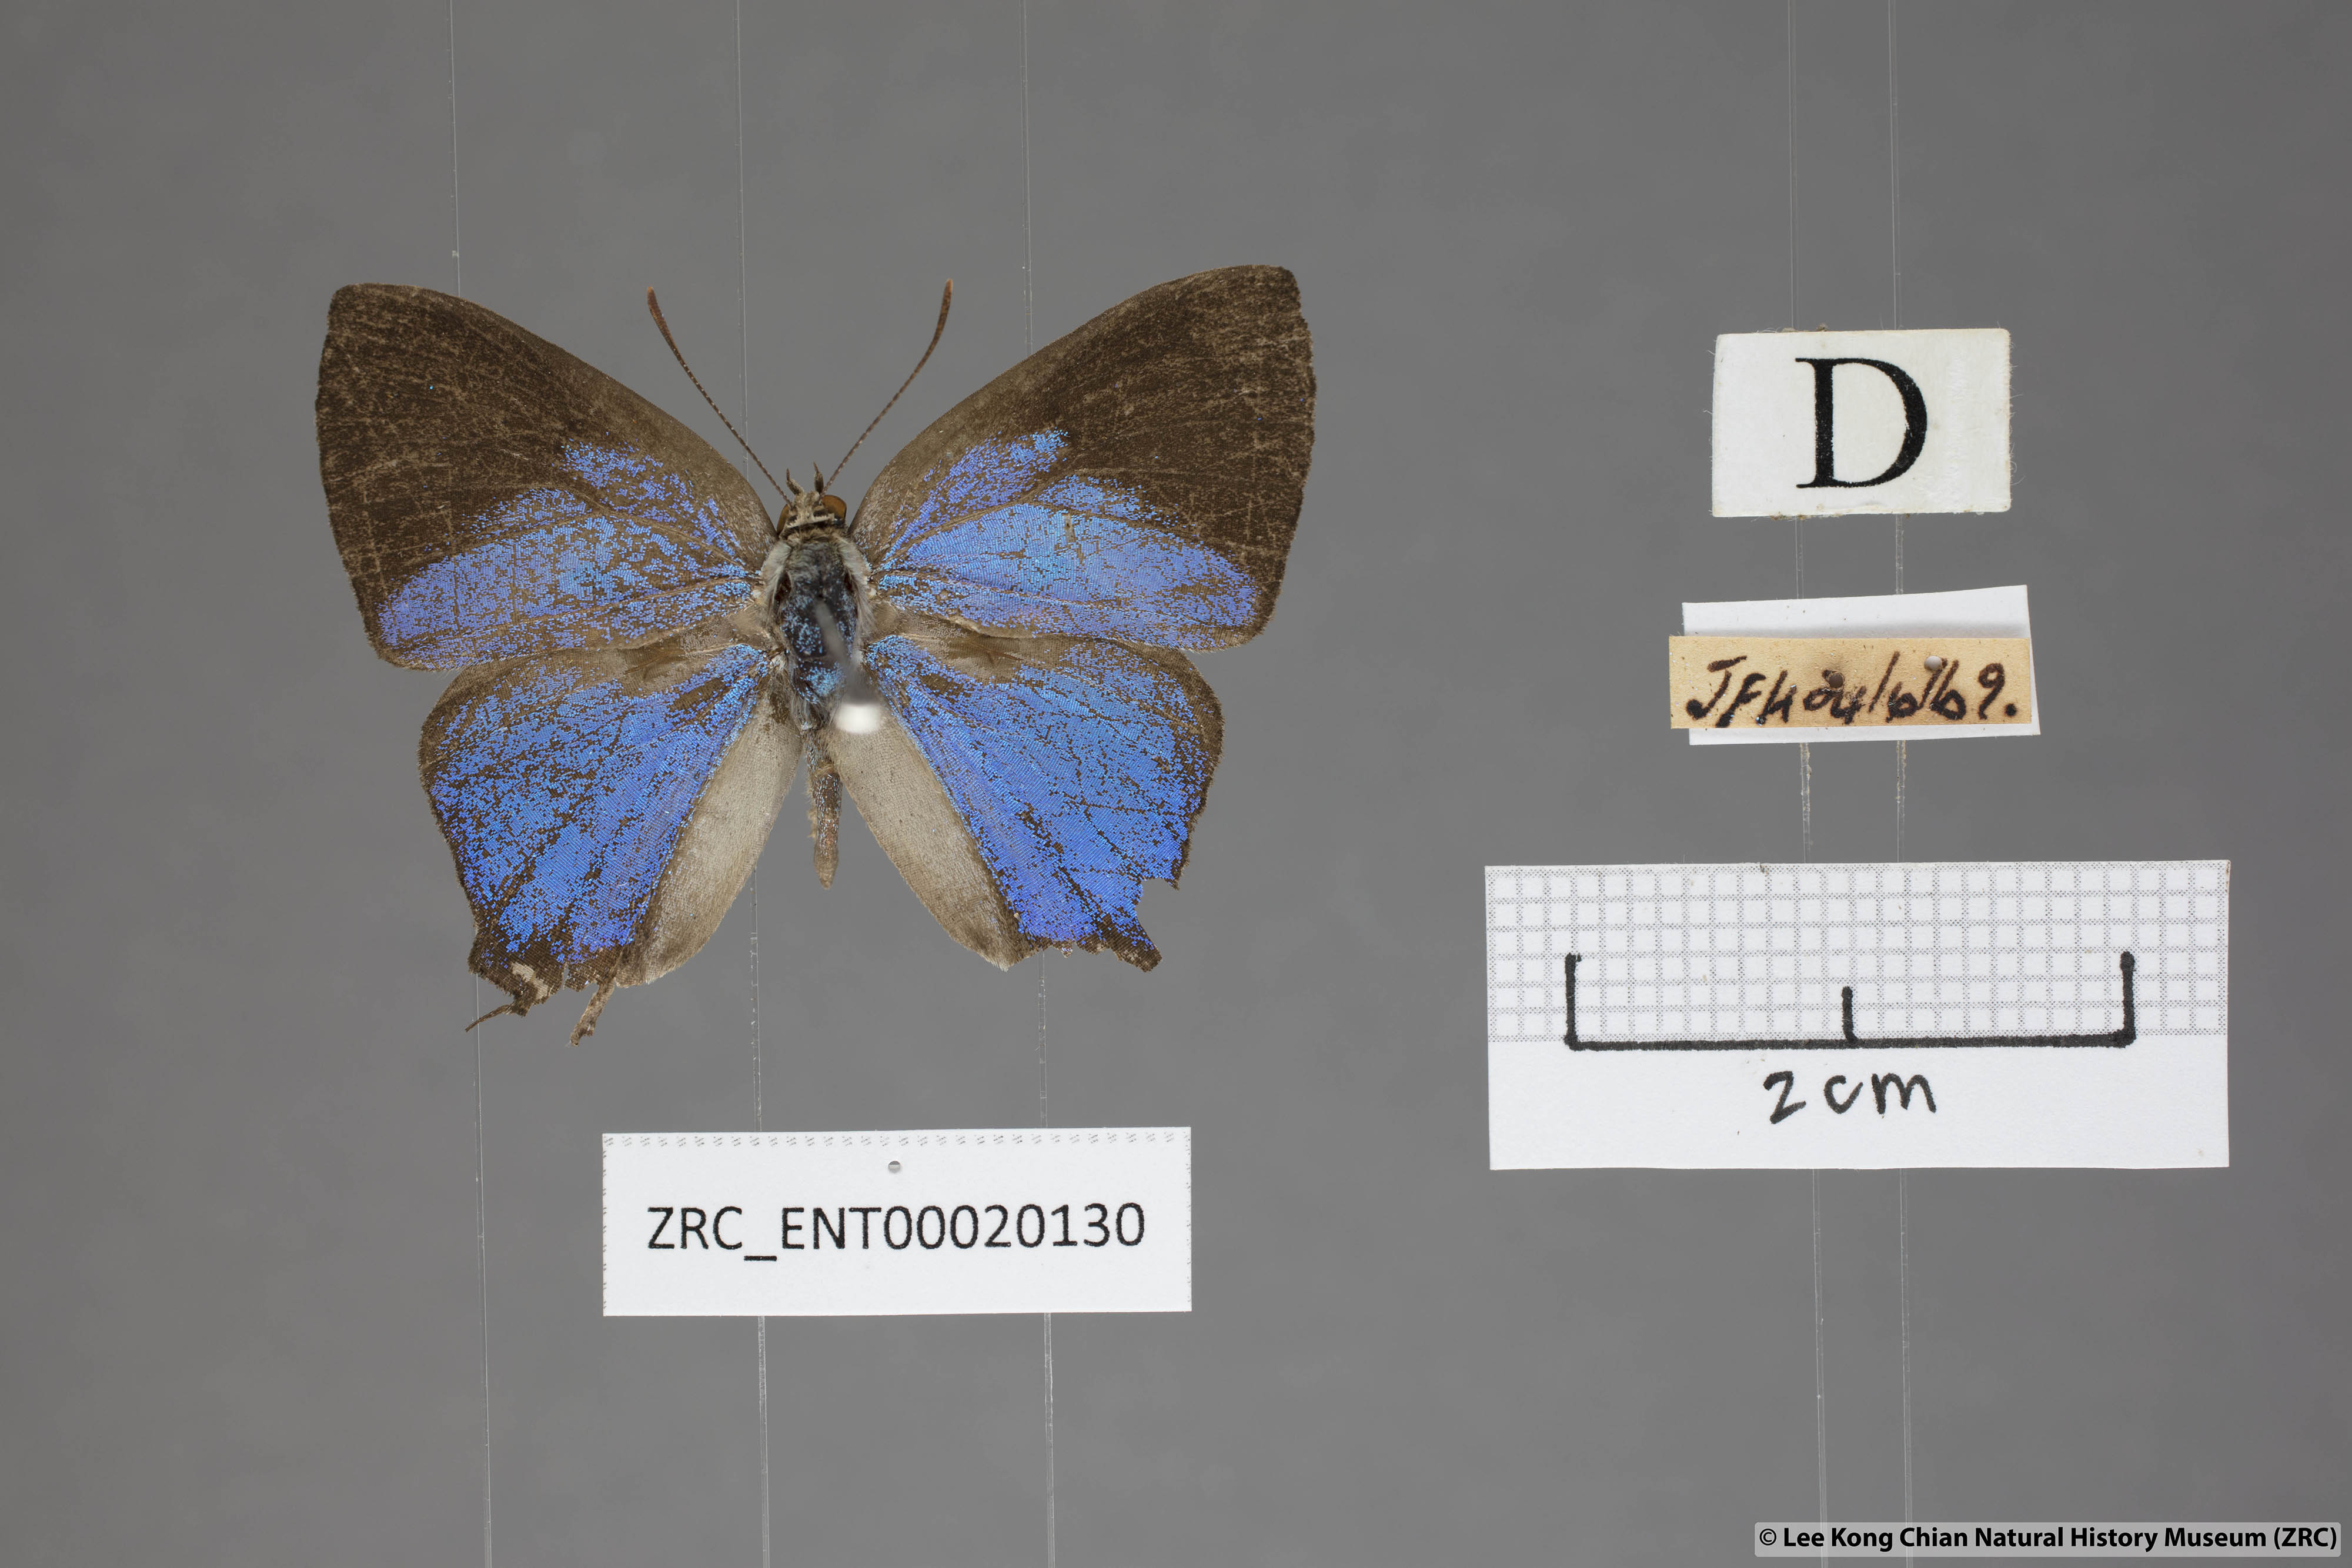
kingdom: Animalia
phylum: Arthropoda
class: Insecta
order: Lepidoptera
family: Lycaenidae
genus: Creon
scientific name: Creon cleobis
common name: Broad-tail royal
